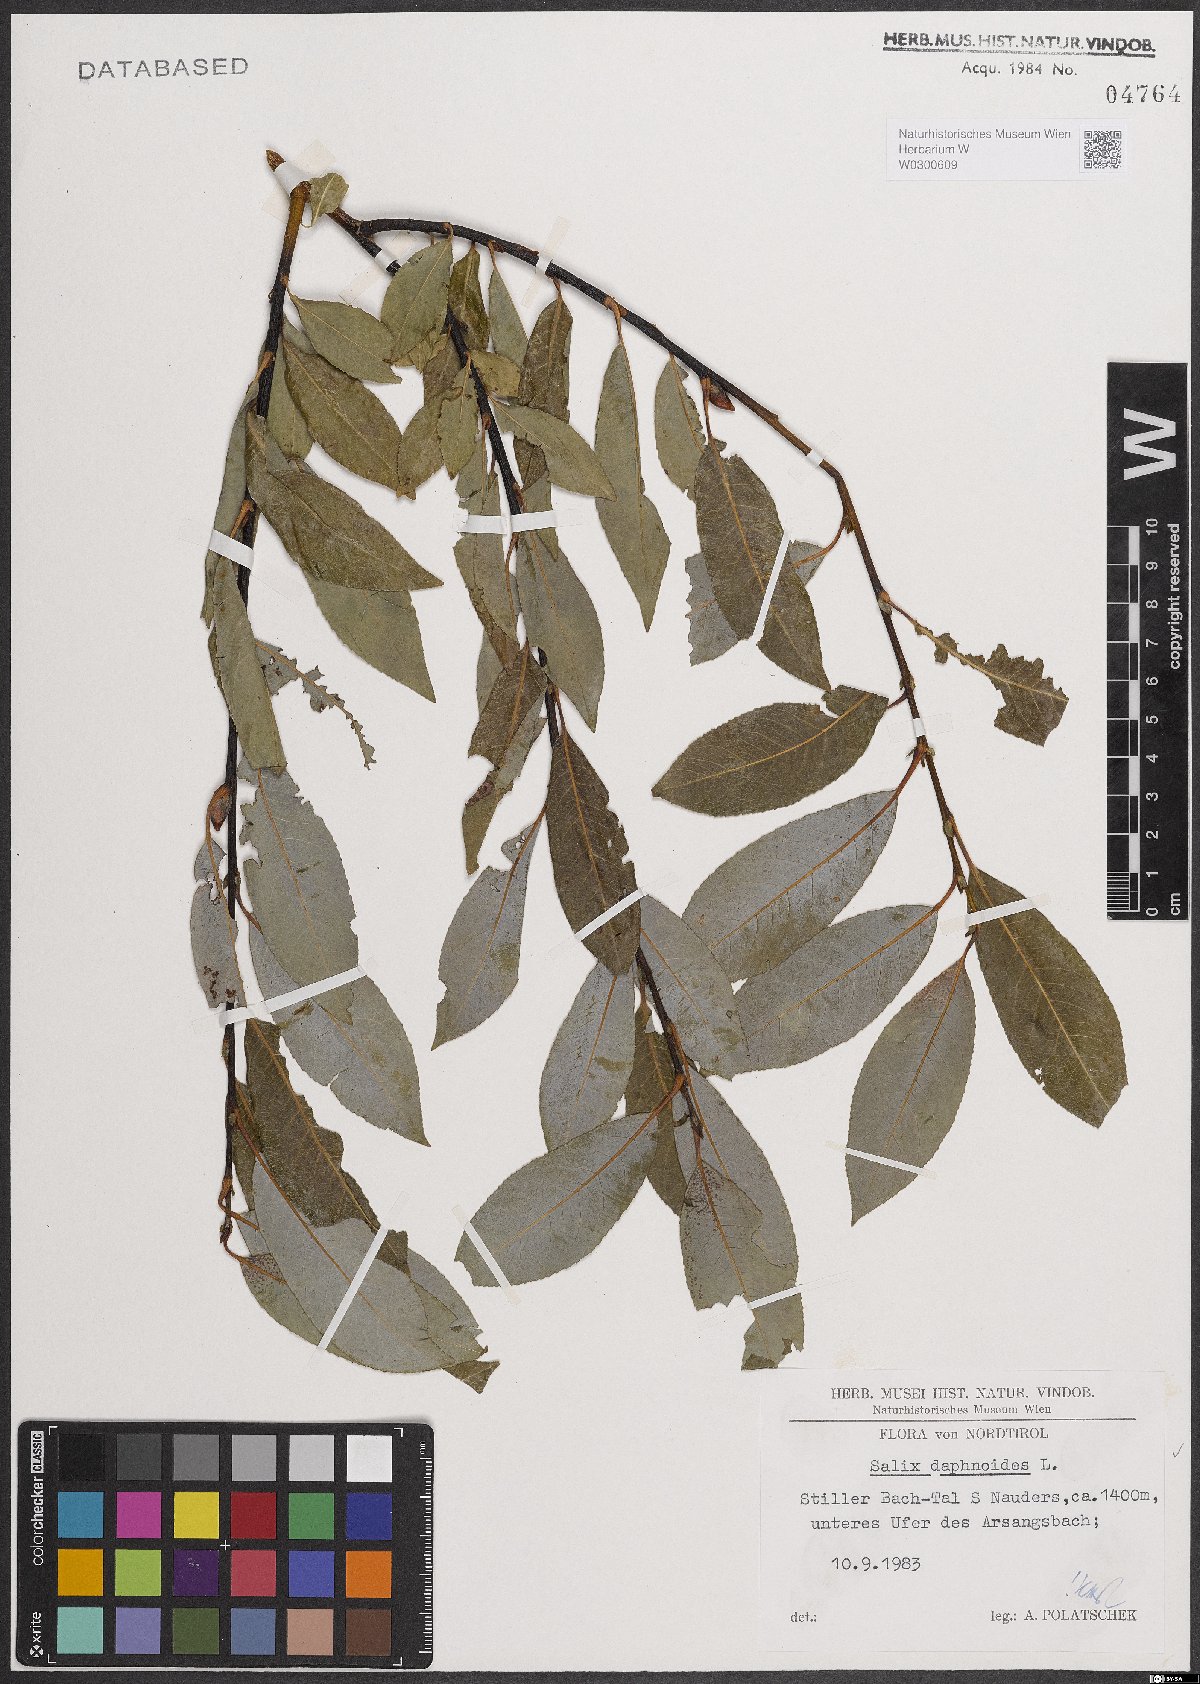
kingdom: Plantae
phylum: Tracheophyta
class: Magnoliopsida
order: Malpighiales
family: Salicaceae
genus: Salix
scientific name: Salix daphnoides
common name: European violet-willow
